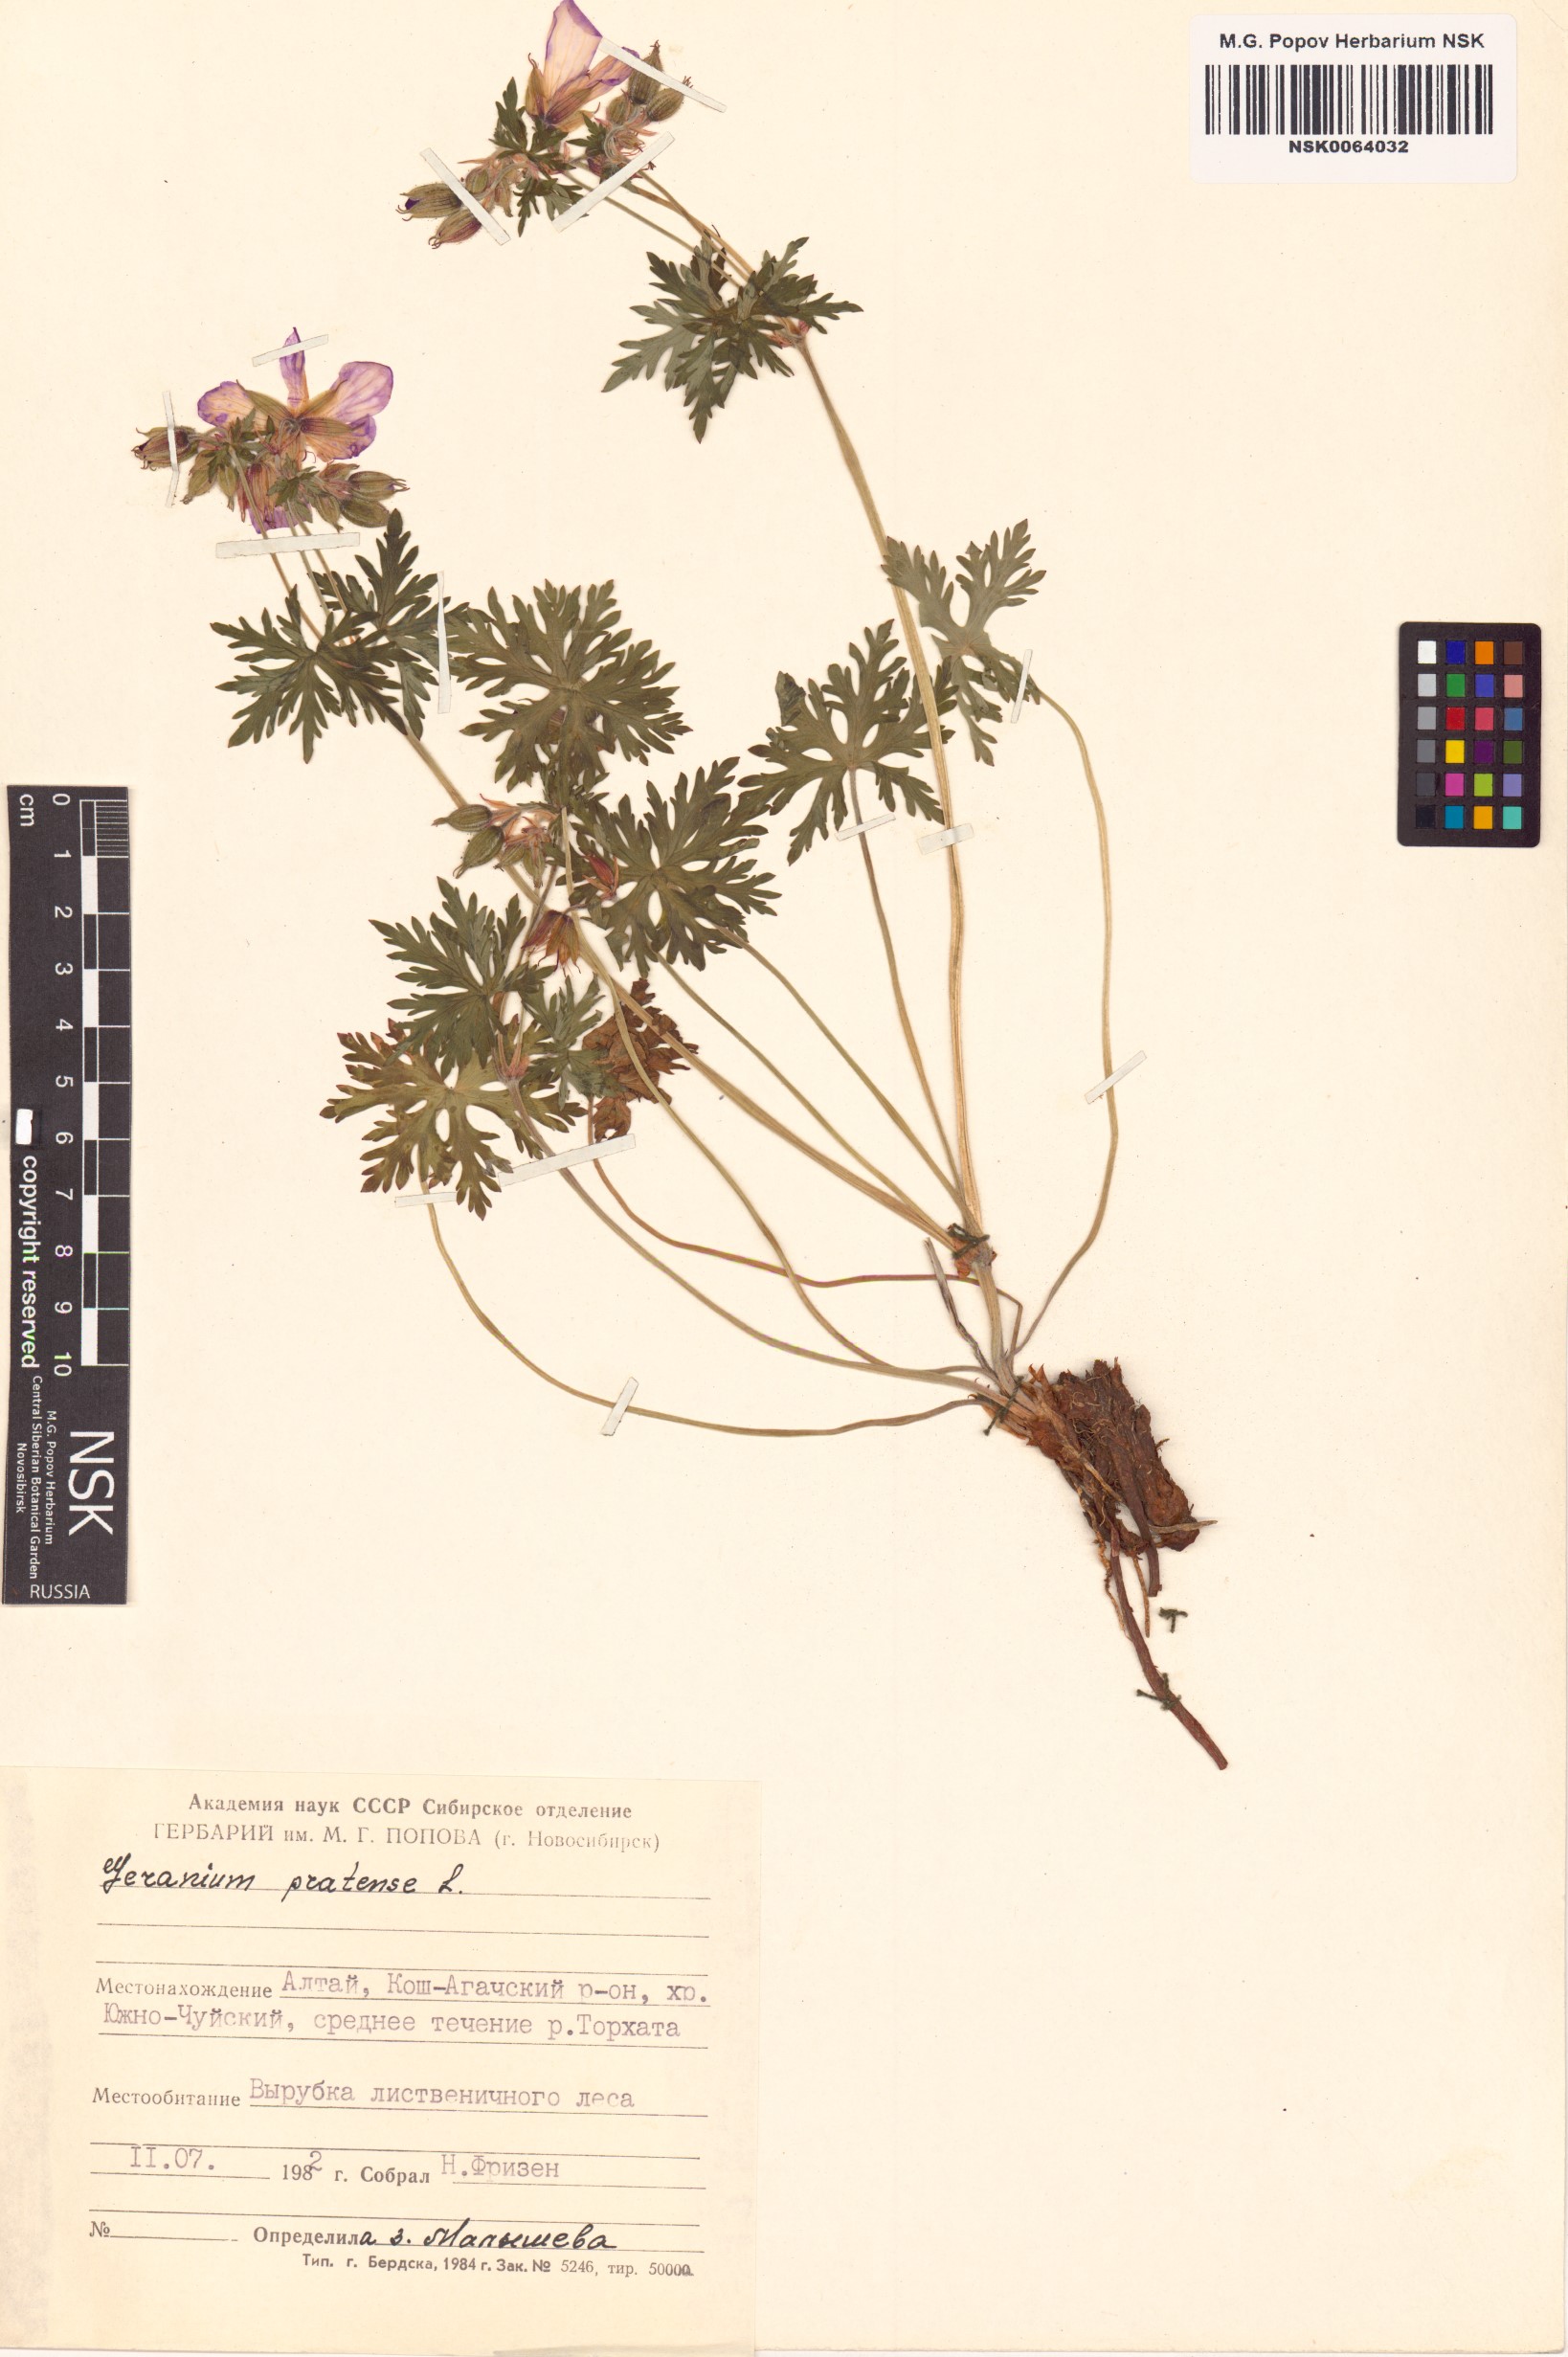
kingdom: Plantae
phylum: Tracheophyta
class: Magnoliopsida
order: Geraniales
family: Geraniaceae
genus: Geranium
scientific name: Geranium pratense
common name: Meadow crane's-bill
